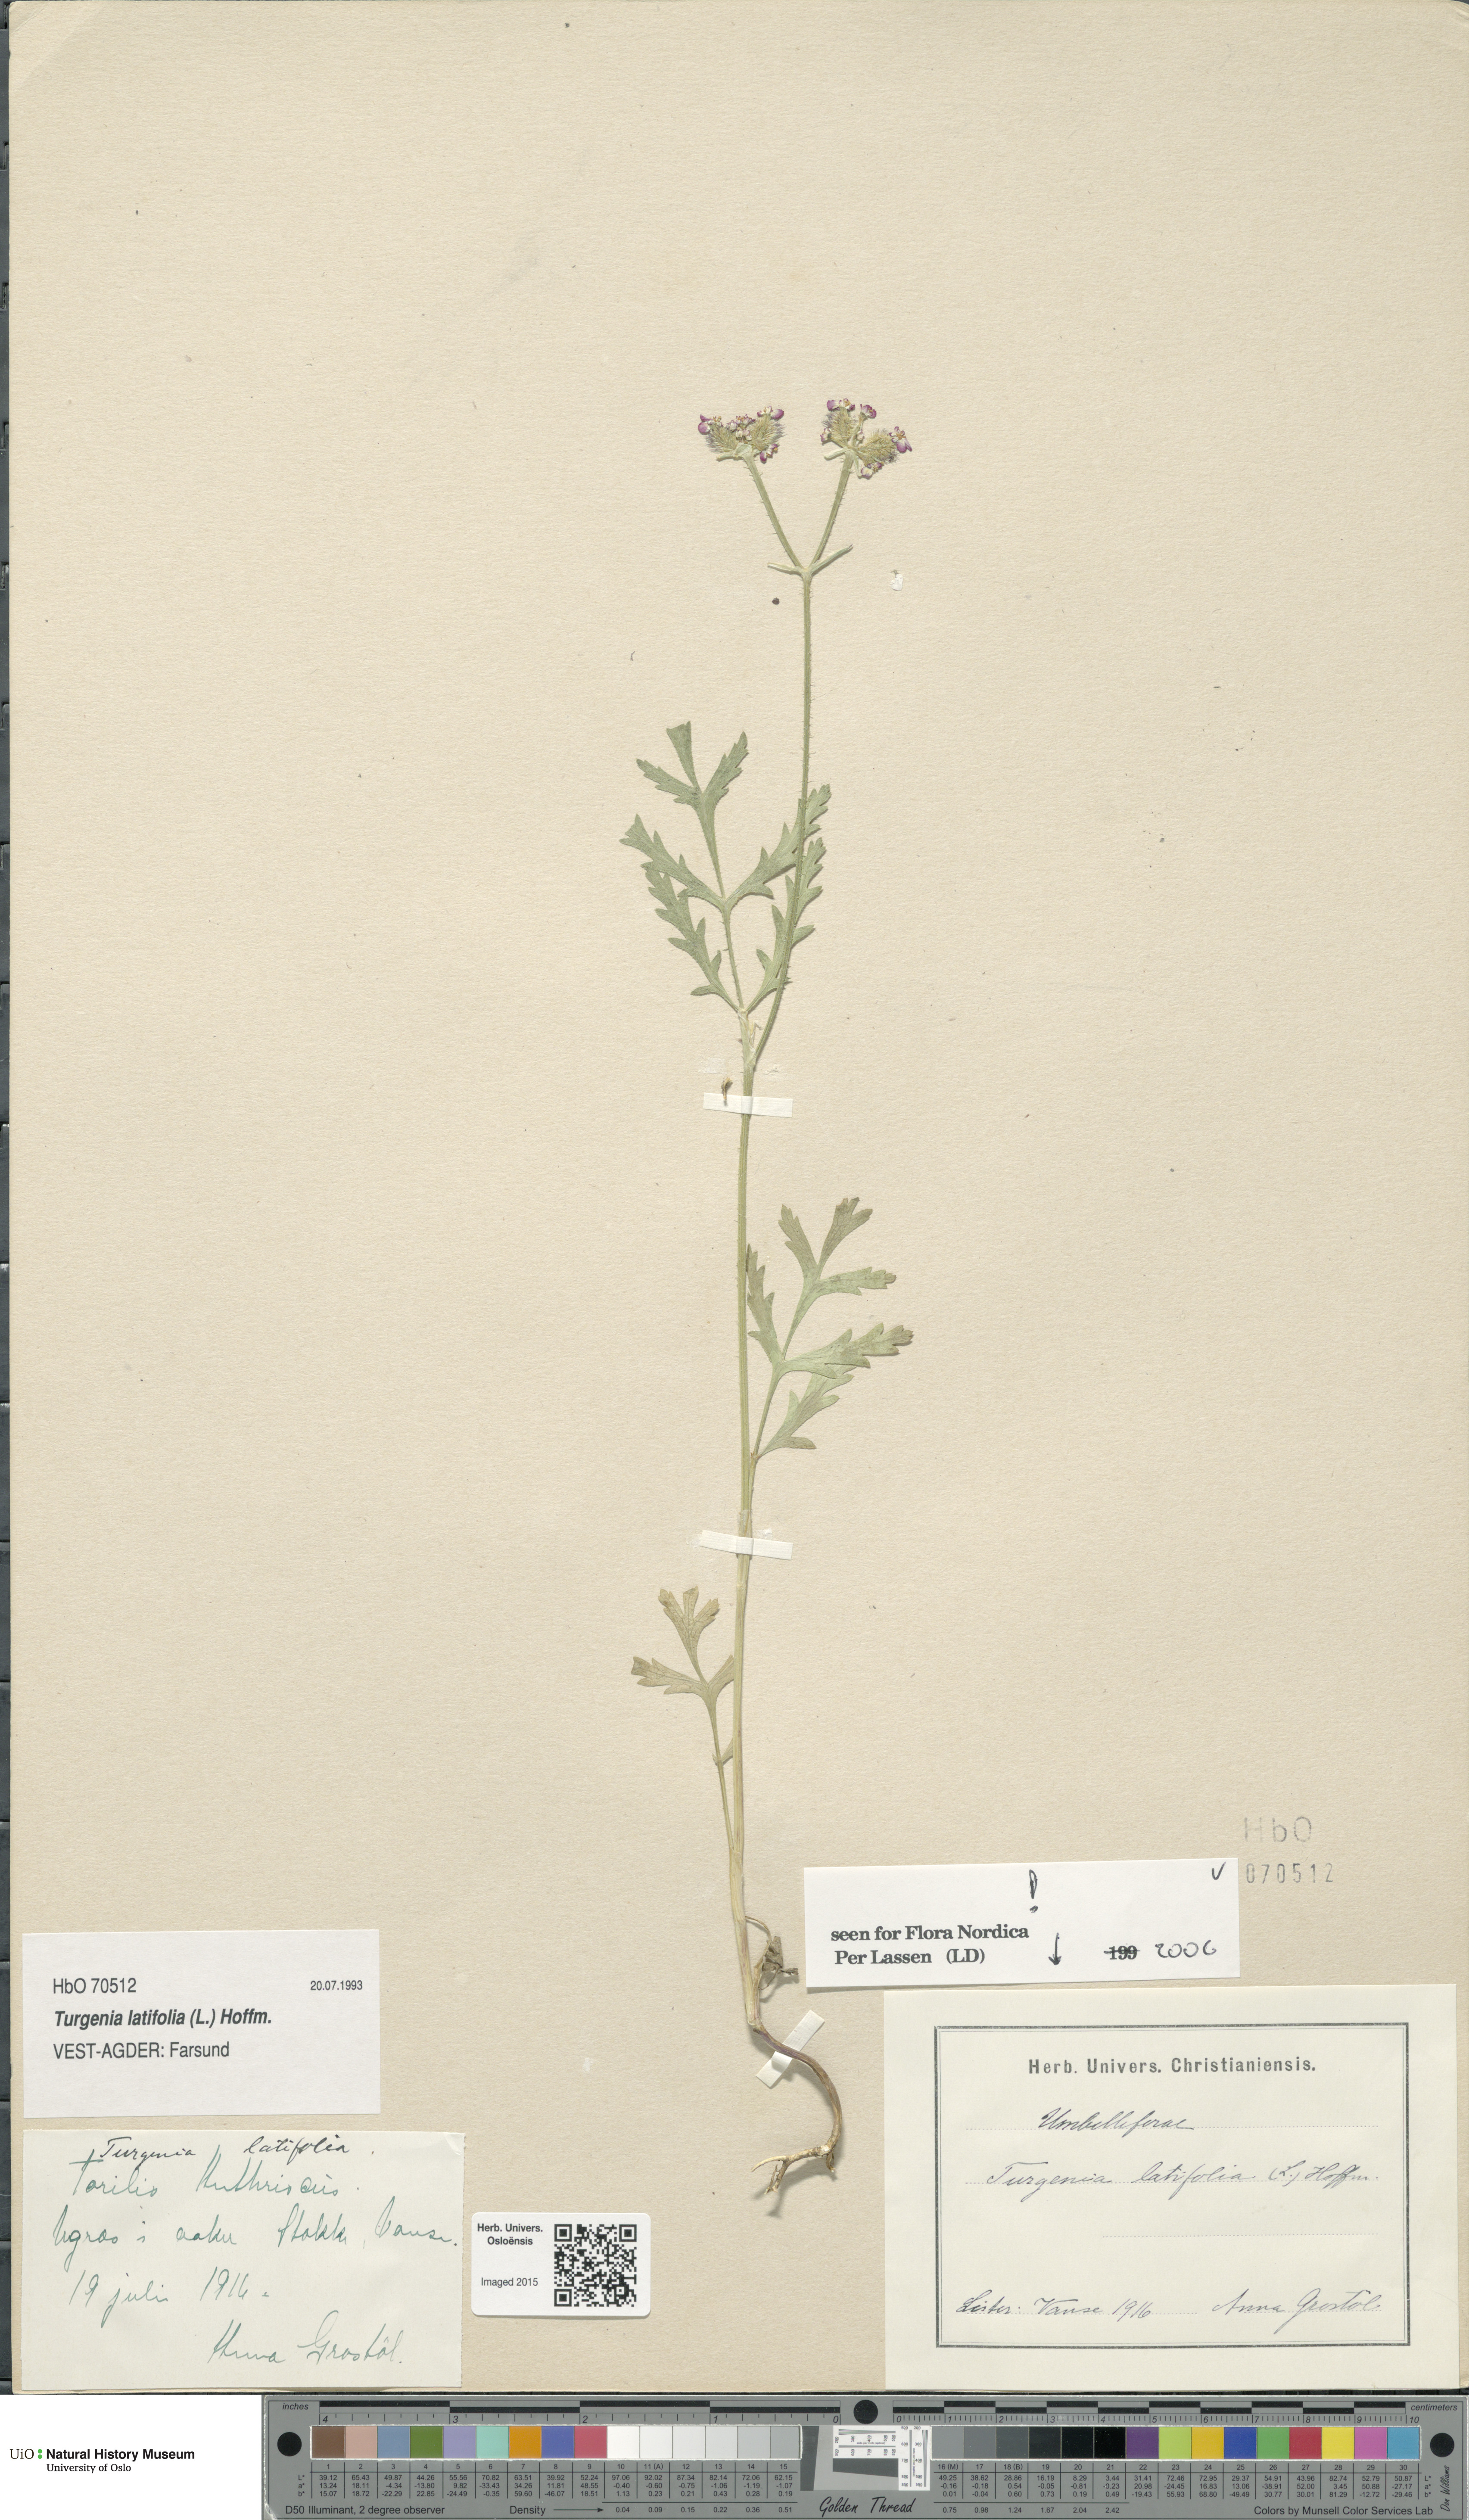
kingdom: Plantae
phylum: Tracheophyta
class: Magnoliopsida
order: Apiales
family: Apiaceae
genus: Turgenia
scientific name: Turgenia latifolia
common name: Greater bur-parsley
